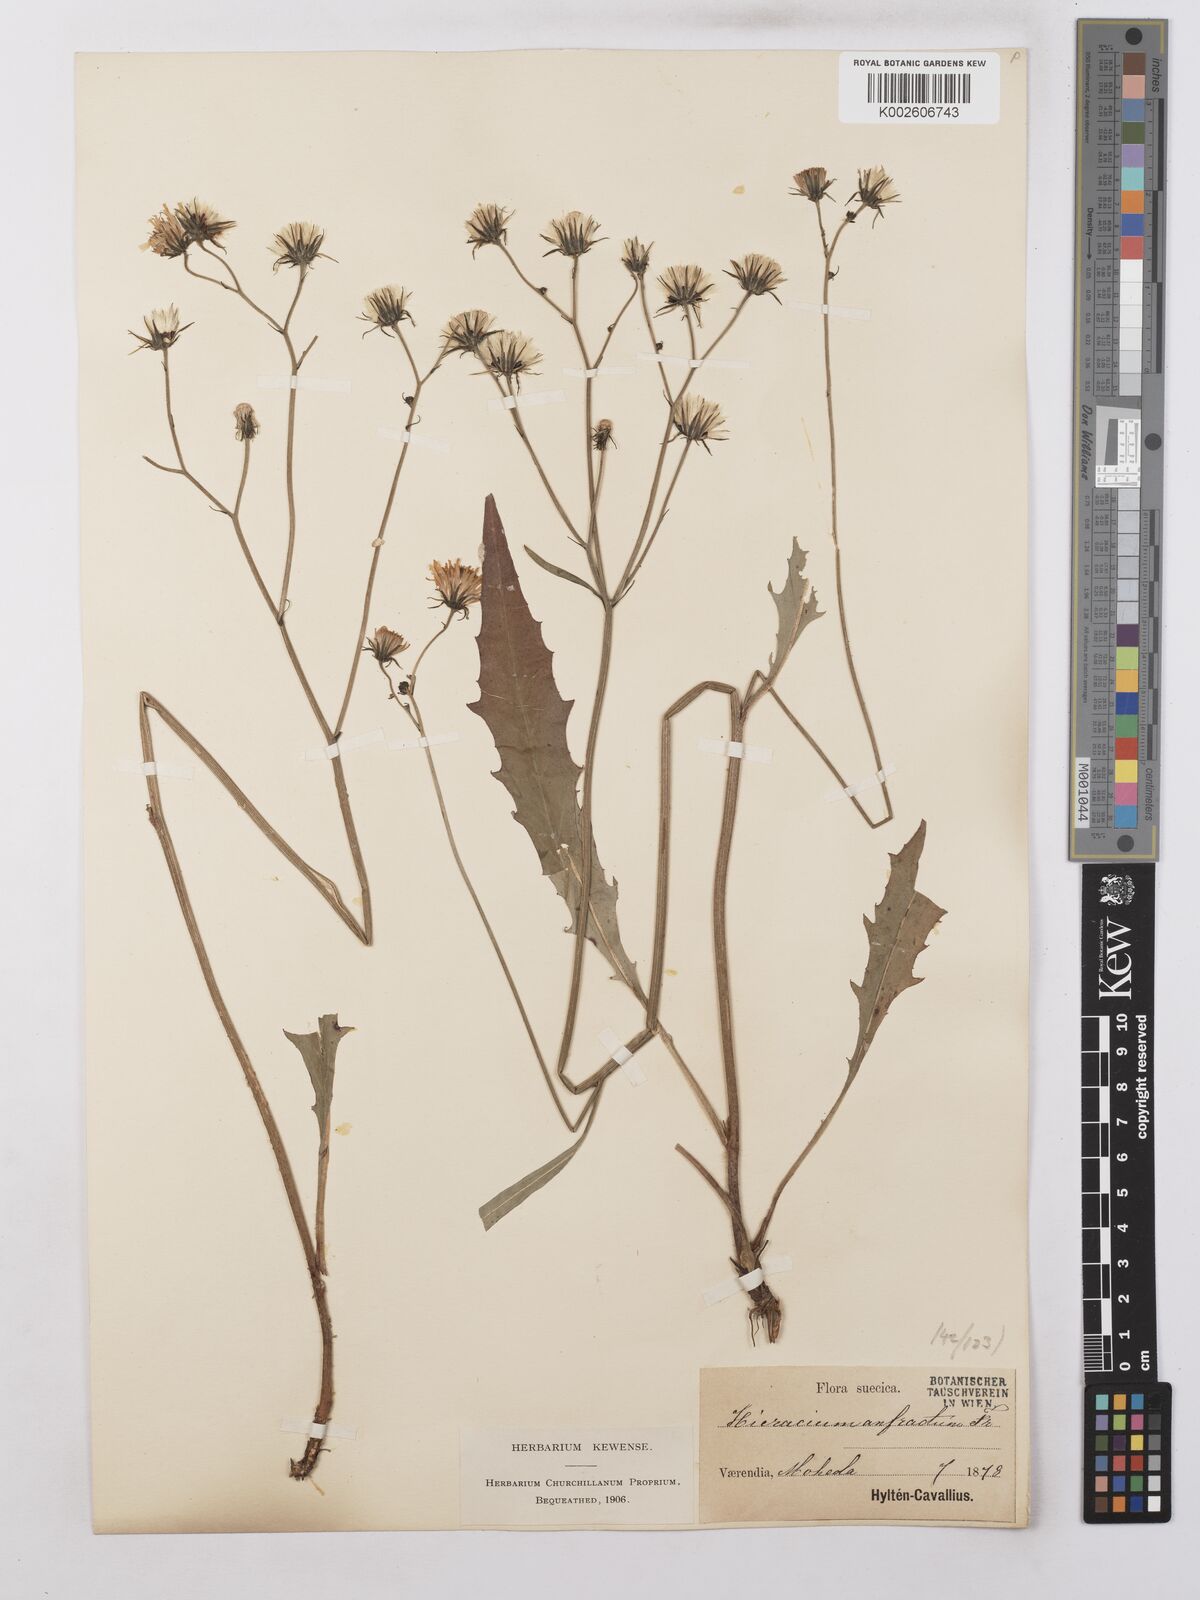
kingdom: Plantae
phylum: Tracheophyta
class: Magnoliopsida
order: Asterales
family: Asteraceae
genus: Hieracium
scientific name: Hieracium lachenalii
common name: Common hawkweed
